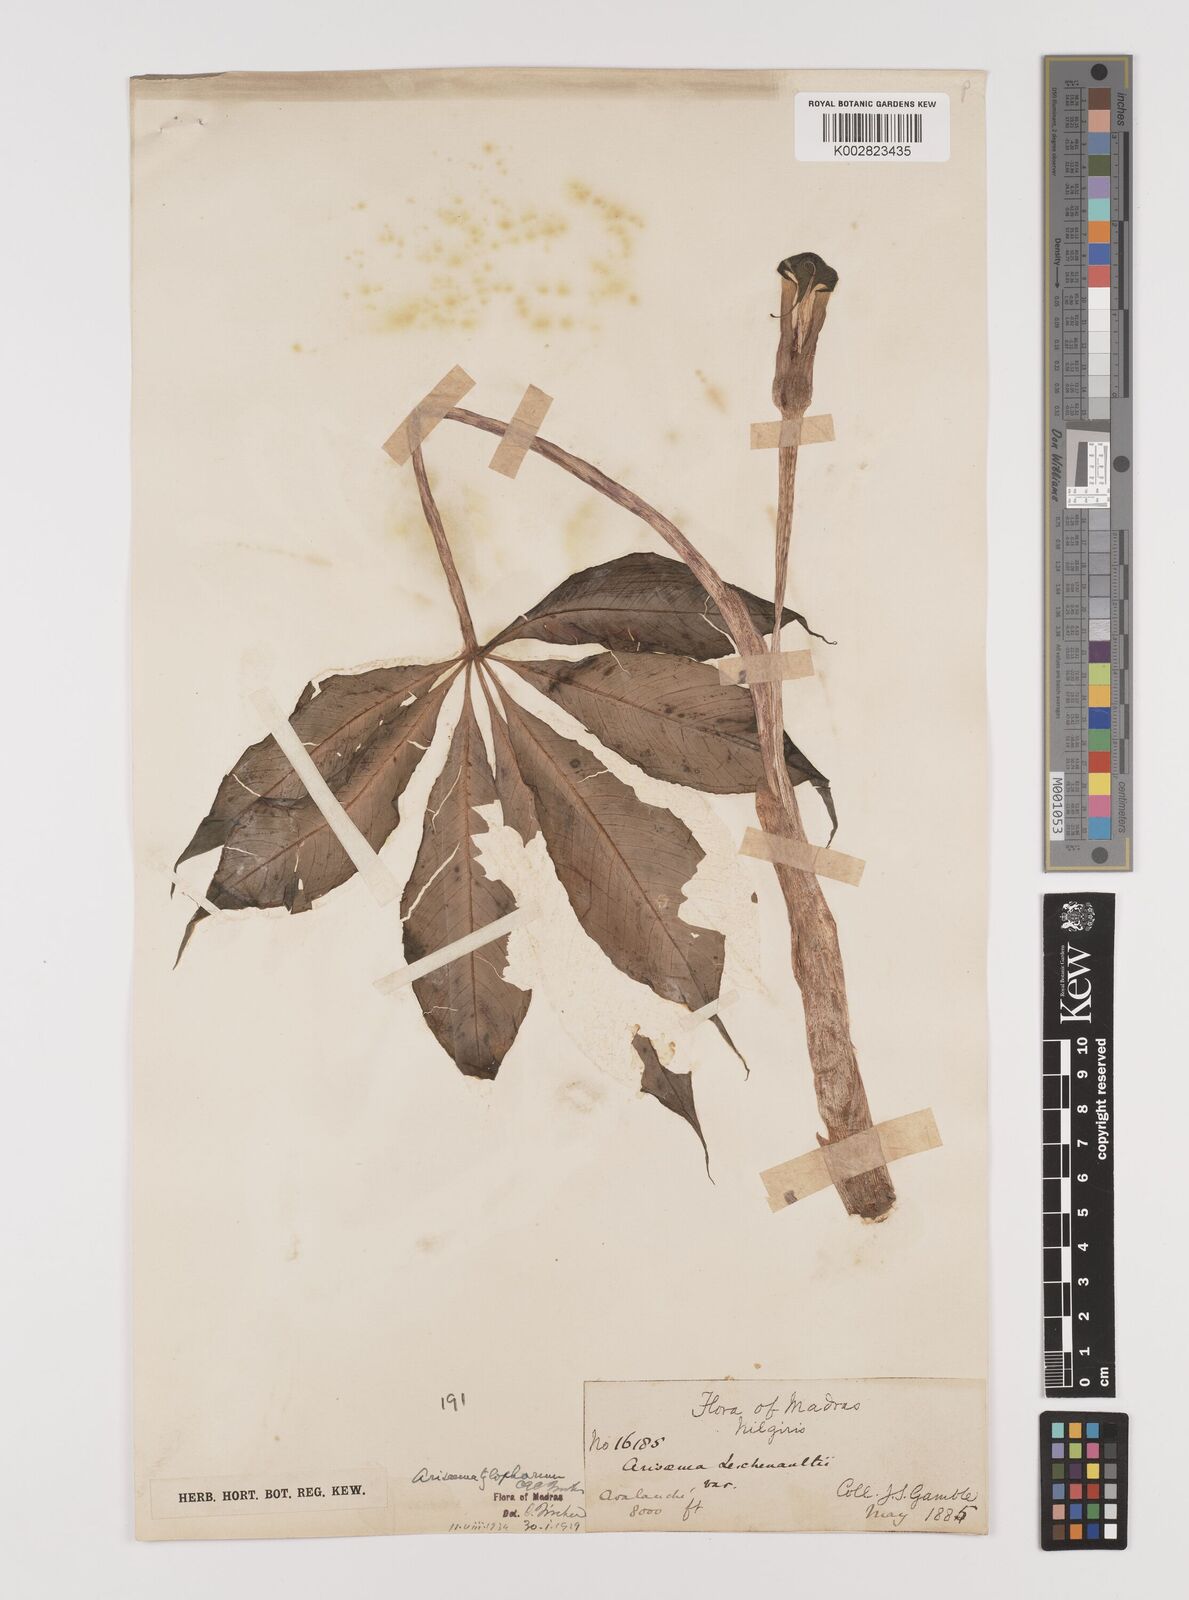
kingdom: Plantae
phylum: Tracheophyta
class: Liliopsida
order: Alismatales
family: Araceae
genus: Arisaema
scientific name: Arisaema barnesii
